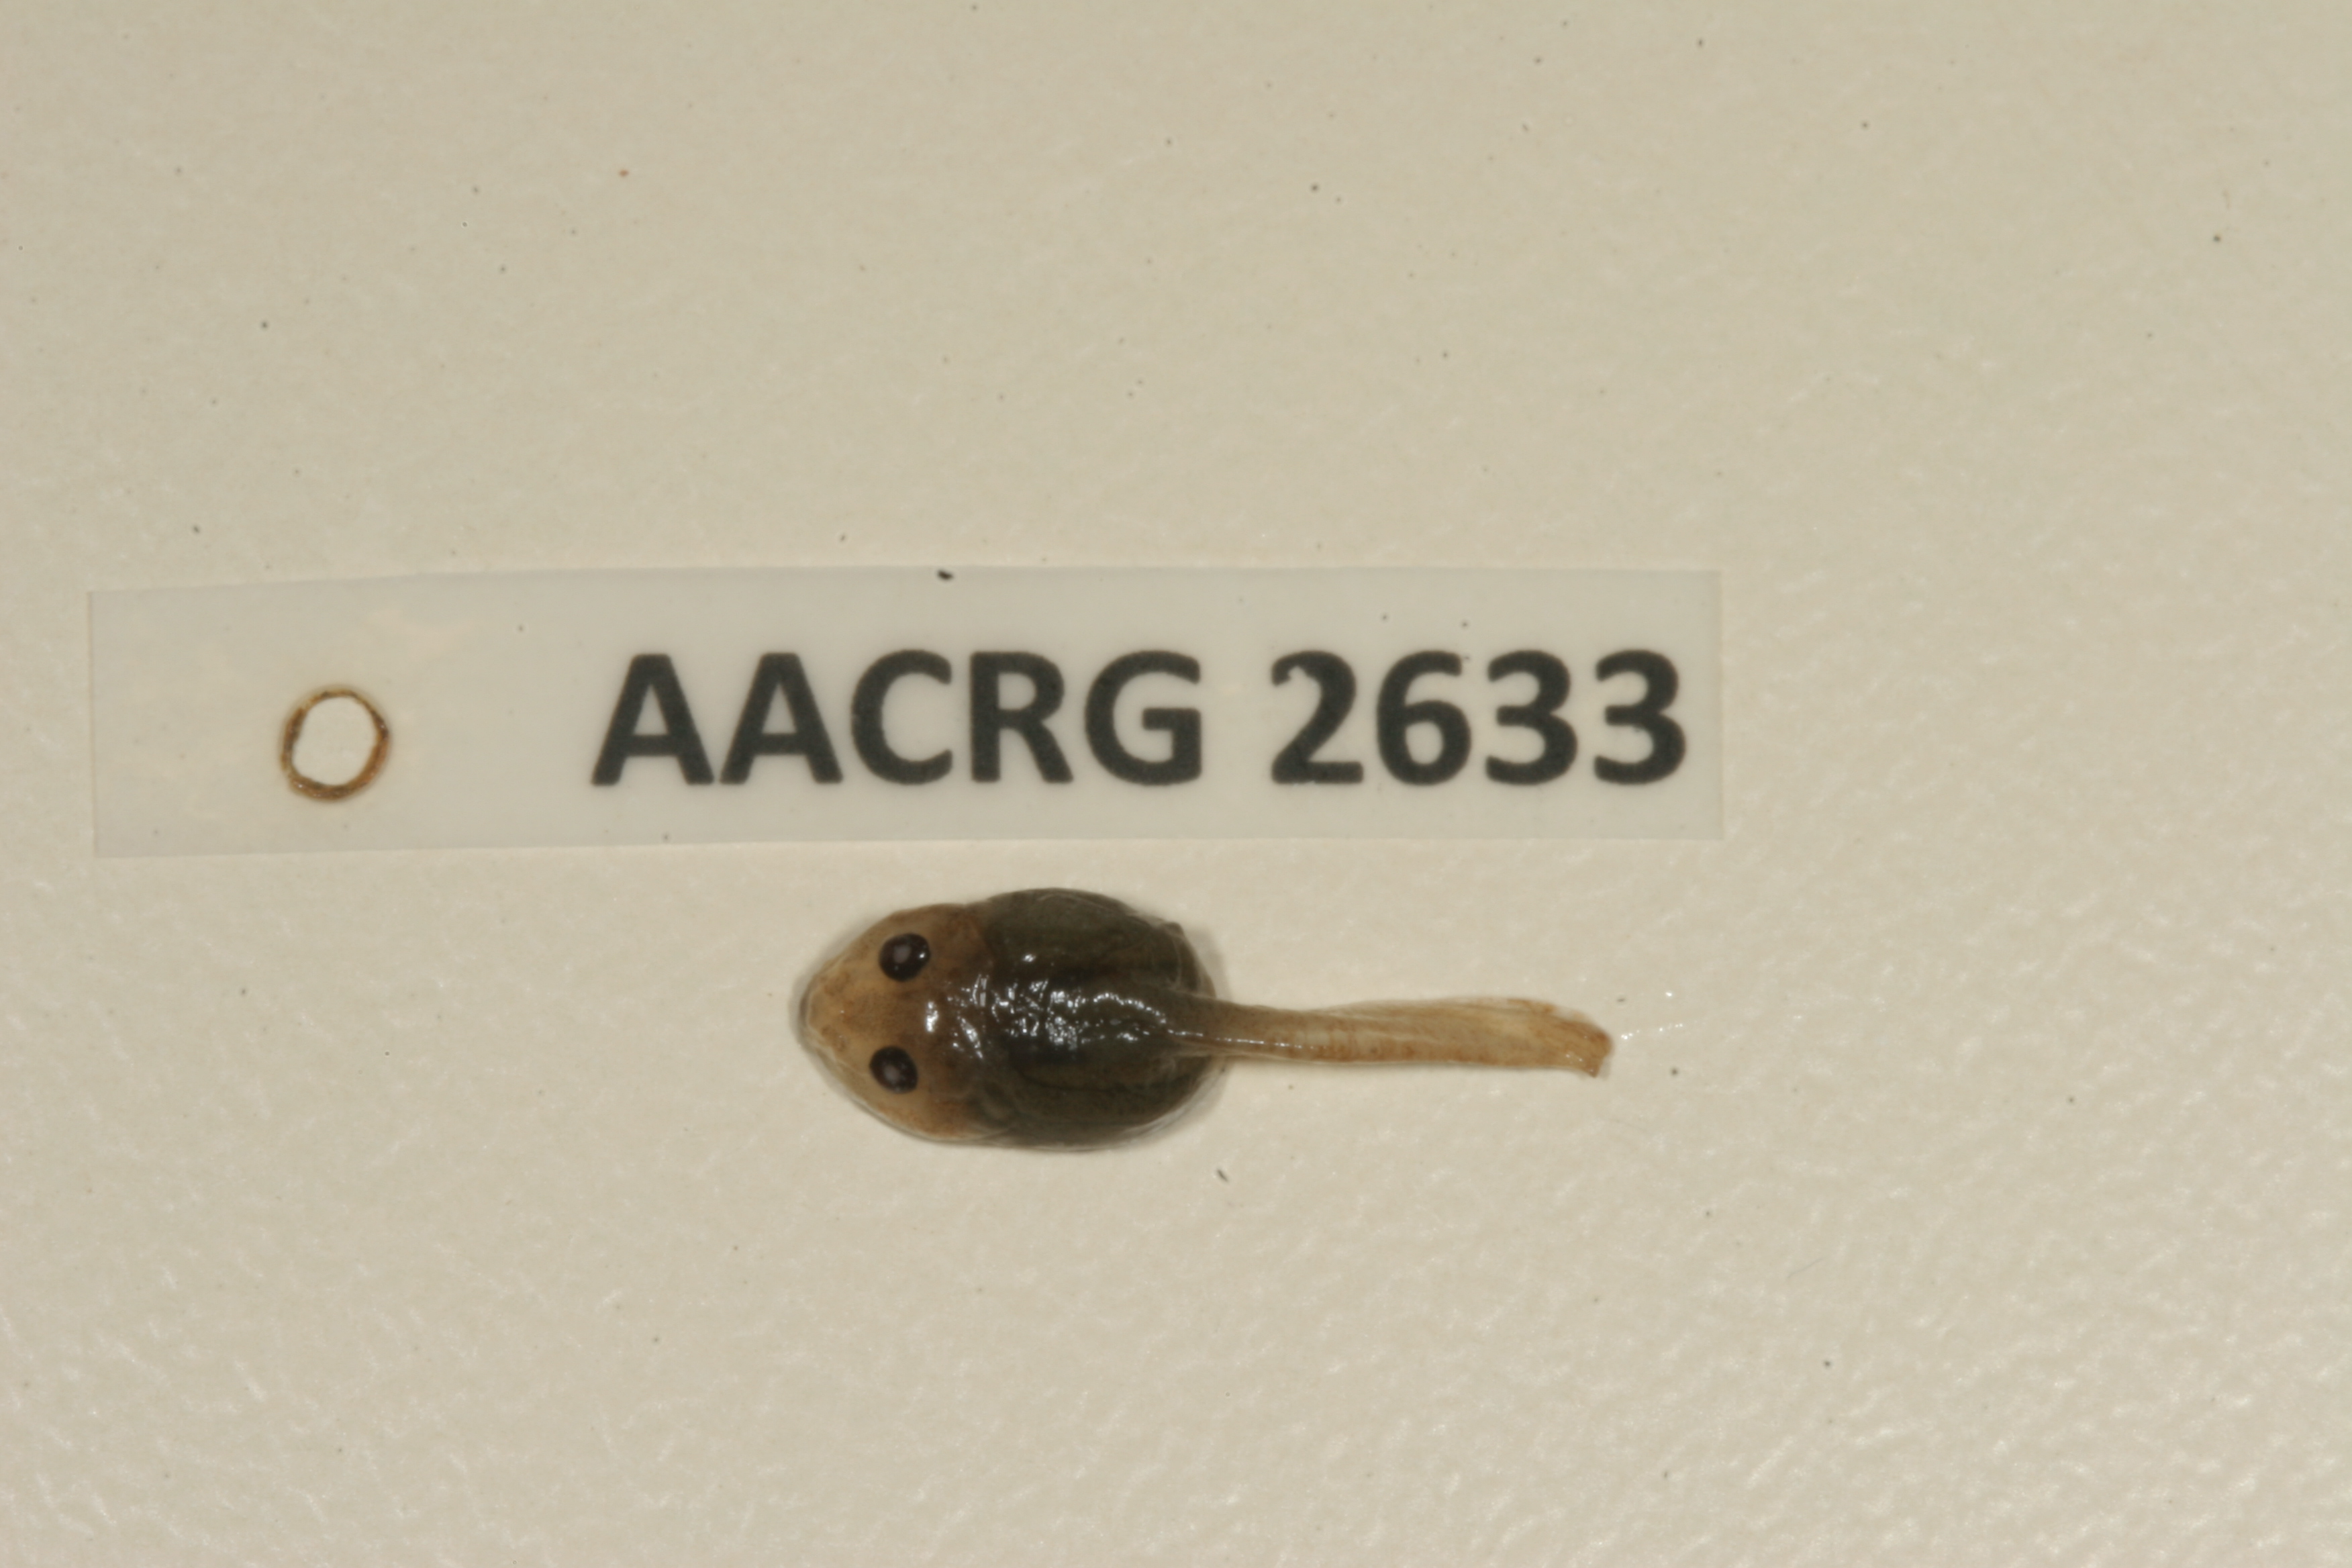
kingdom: Animalia
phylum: Chordata
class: Amphibia
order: Anura
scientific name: Anura
